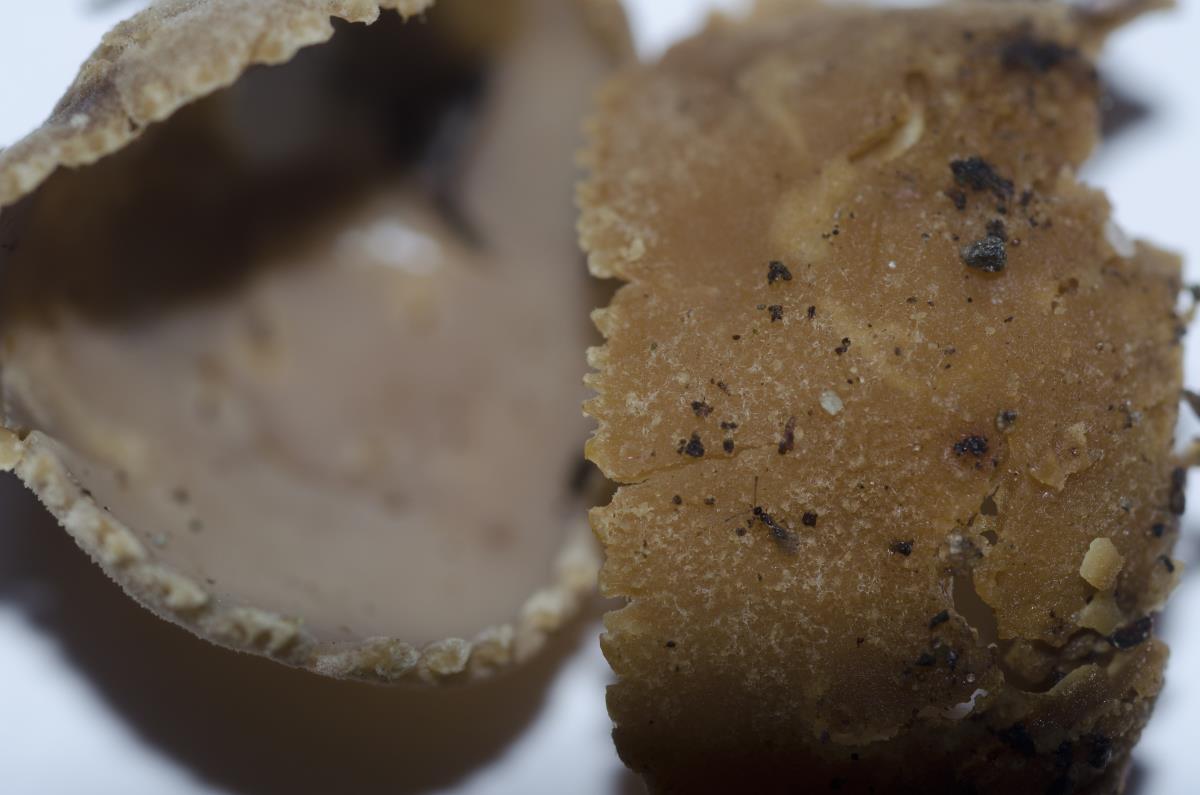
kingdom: Fungi
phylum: Ascomycota
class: Pezizomycetes
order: Pezizales
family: Tarzettaceae
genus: Tarzetta
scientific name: Tarzetta jafneospora
